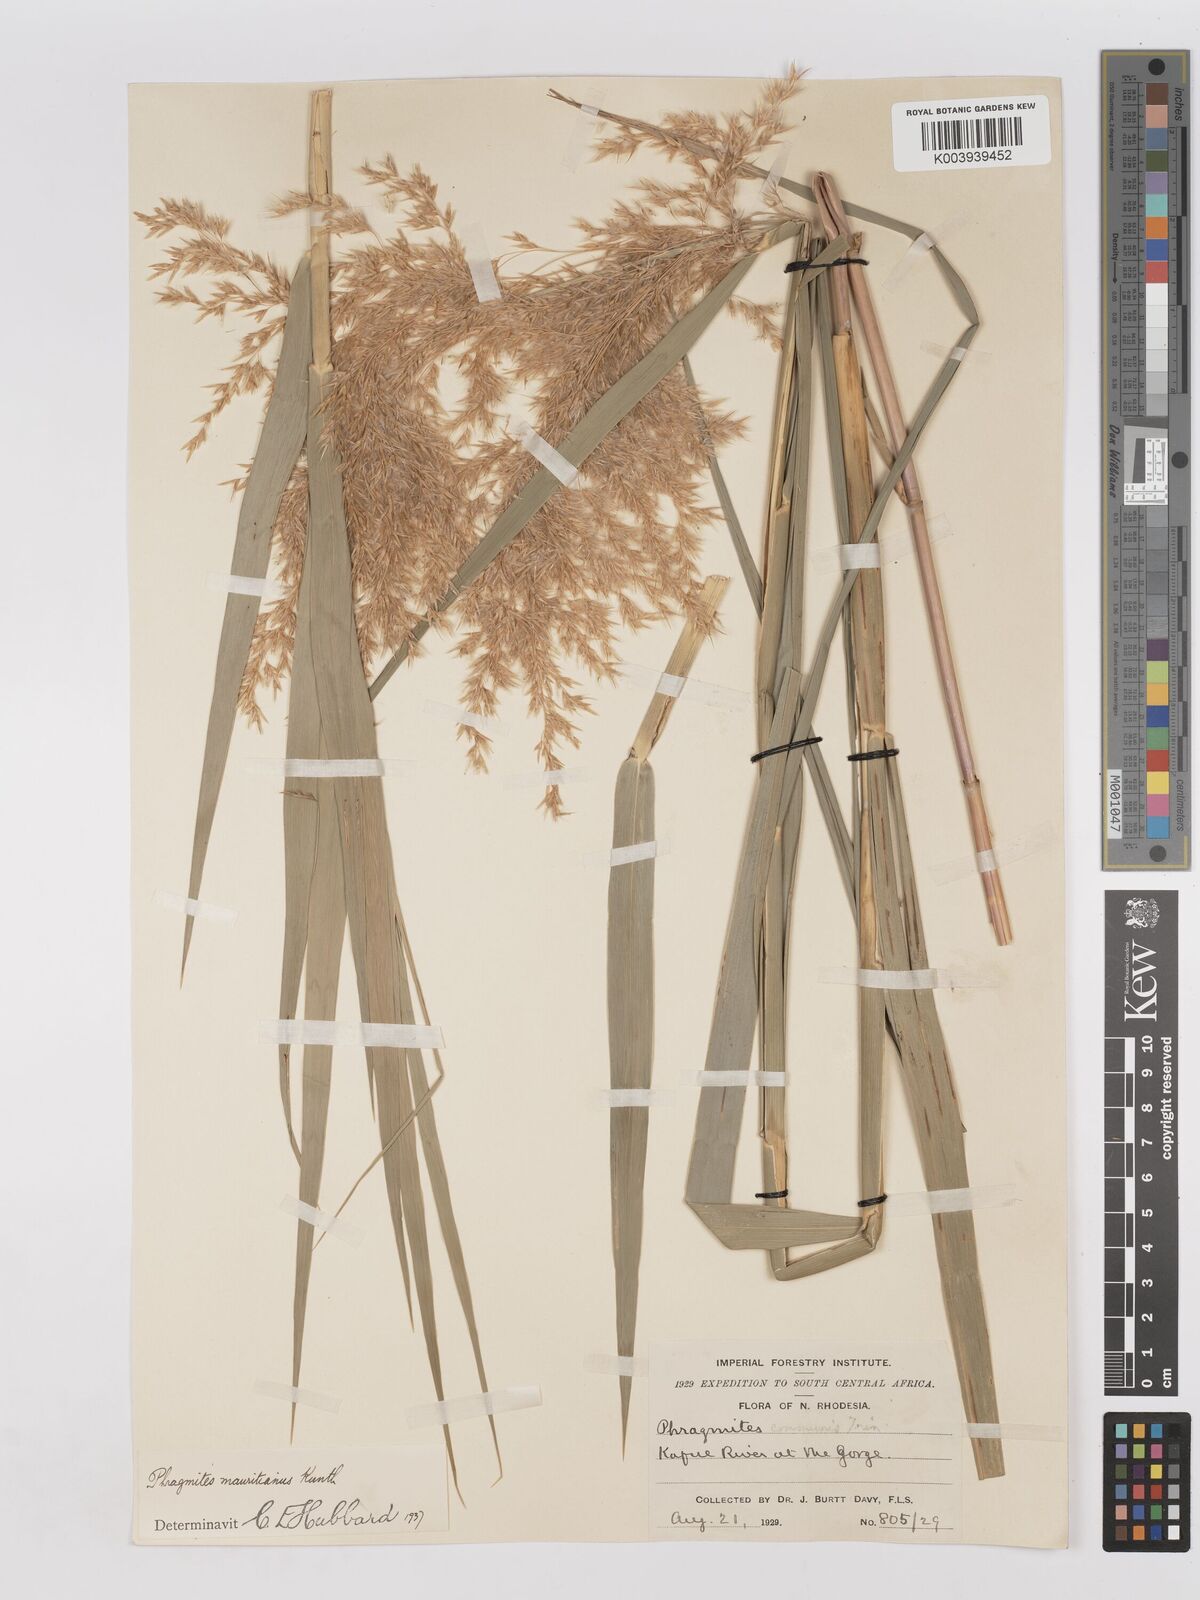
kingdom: Plantae
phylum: Tracheophyta
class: Liliopsida
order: Poales
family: Poaceae
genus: Phragmites
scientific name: Phragmites mauritianus
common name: Reed grass
